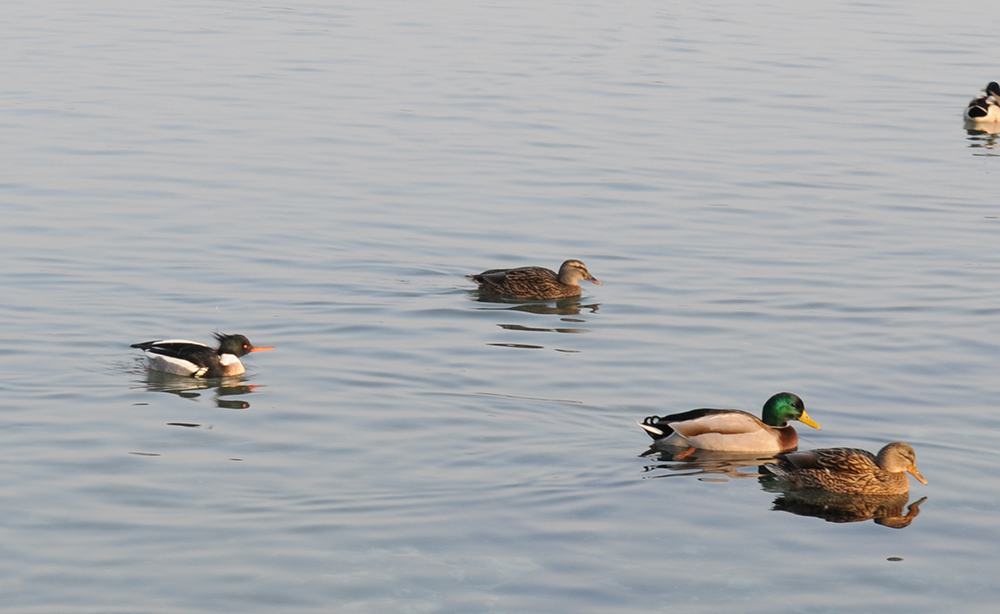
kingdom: Animalia
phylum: Chordata
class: Aves
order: Anseriformes
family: Anatidae
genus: Mergus
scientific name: Mergus serrator
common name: Red-breasted merganser
